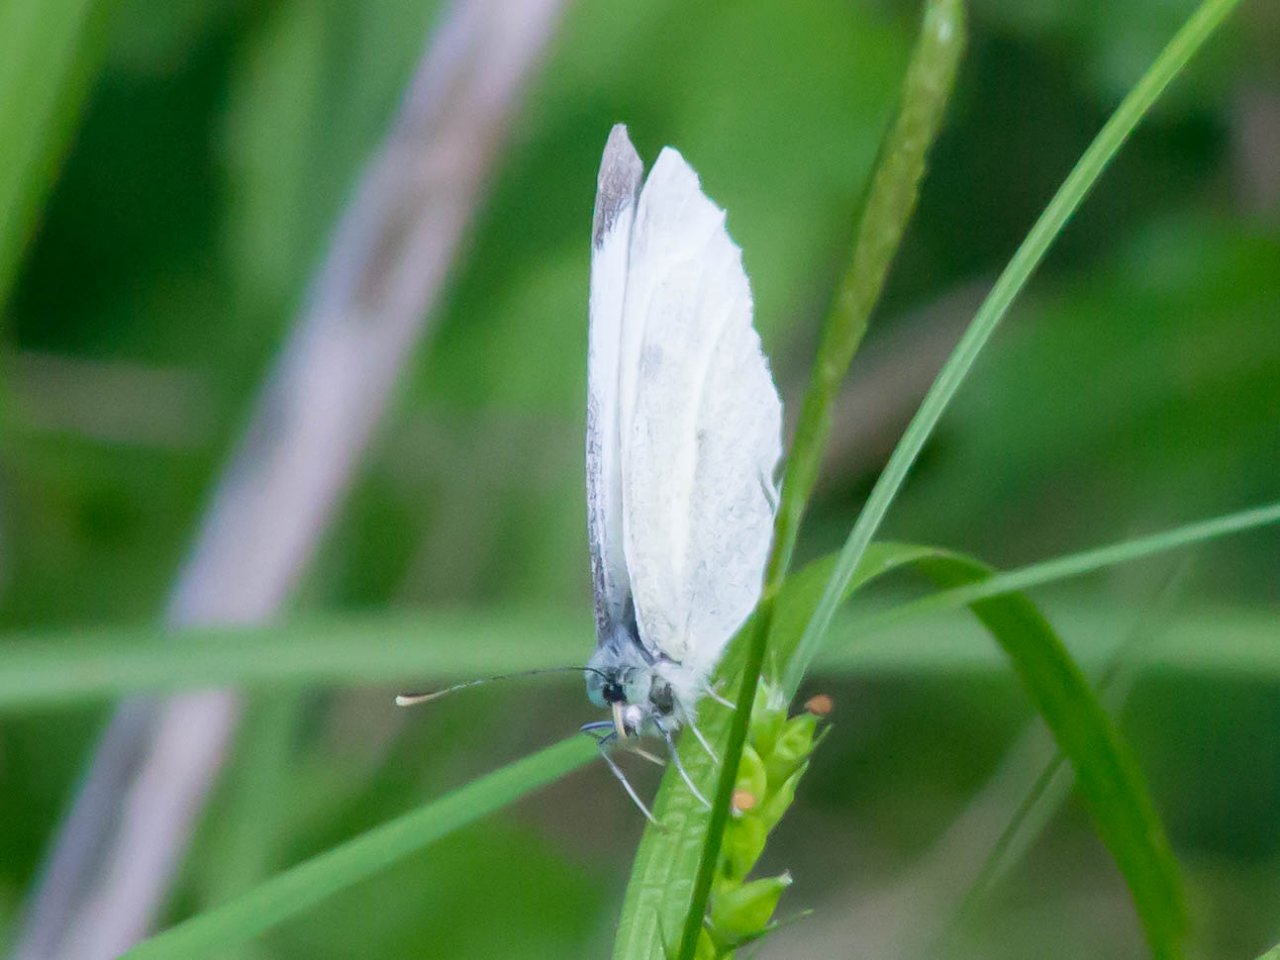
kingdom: Animalia
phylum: Arthropoda
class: Insecta
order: Lepidoptera
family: Pieridae
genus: Pieris
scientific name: Pieris rapae
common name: Cabbage White
